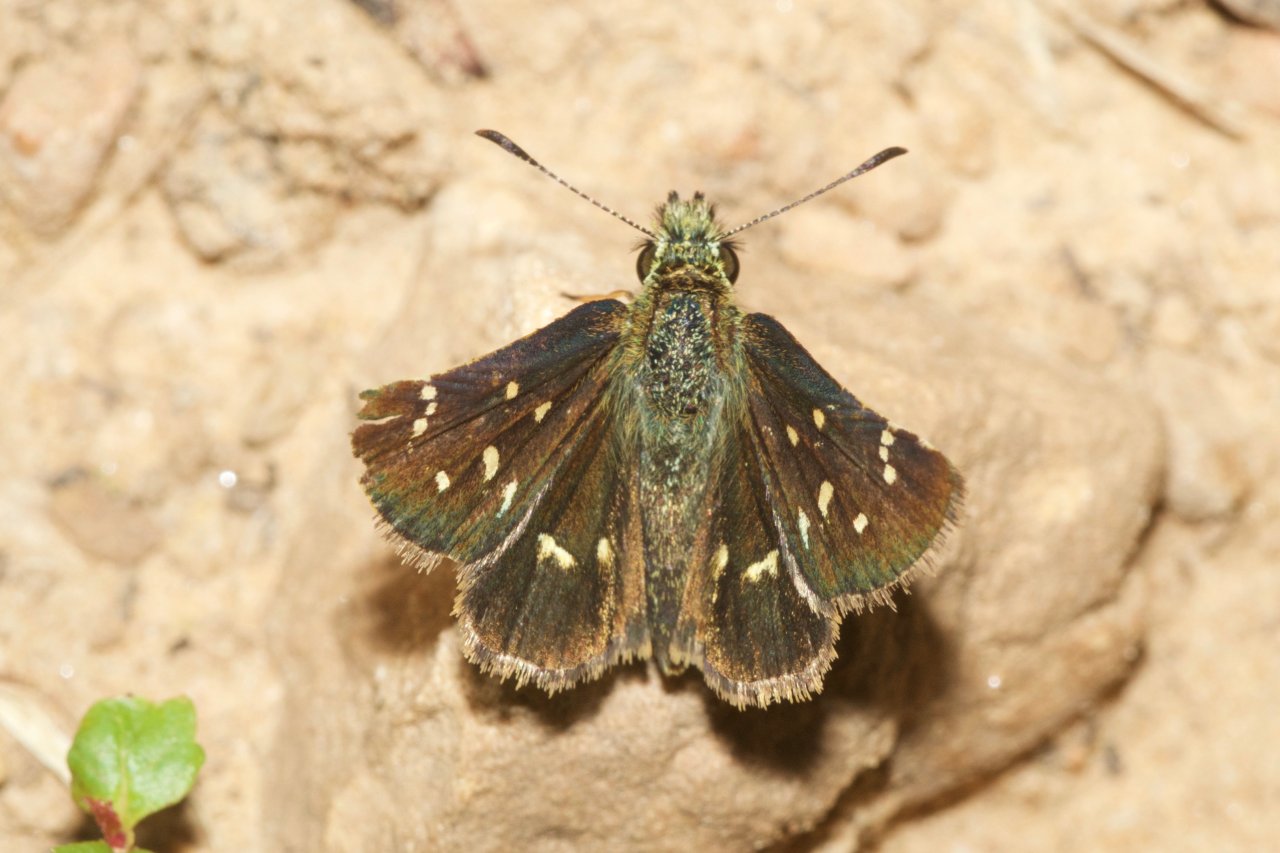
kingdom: Animalia
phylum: Arthropoda
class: Insecta
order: Lepidoptera
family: Hesperiidae
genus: Piruna
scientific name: Piruna polingii
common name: Four-spotted Skipperling
